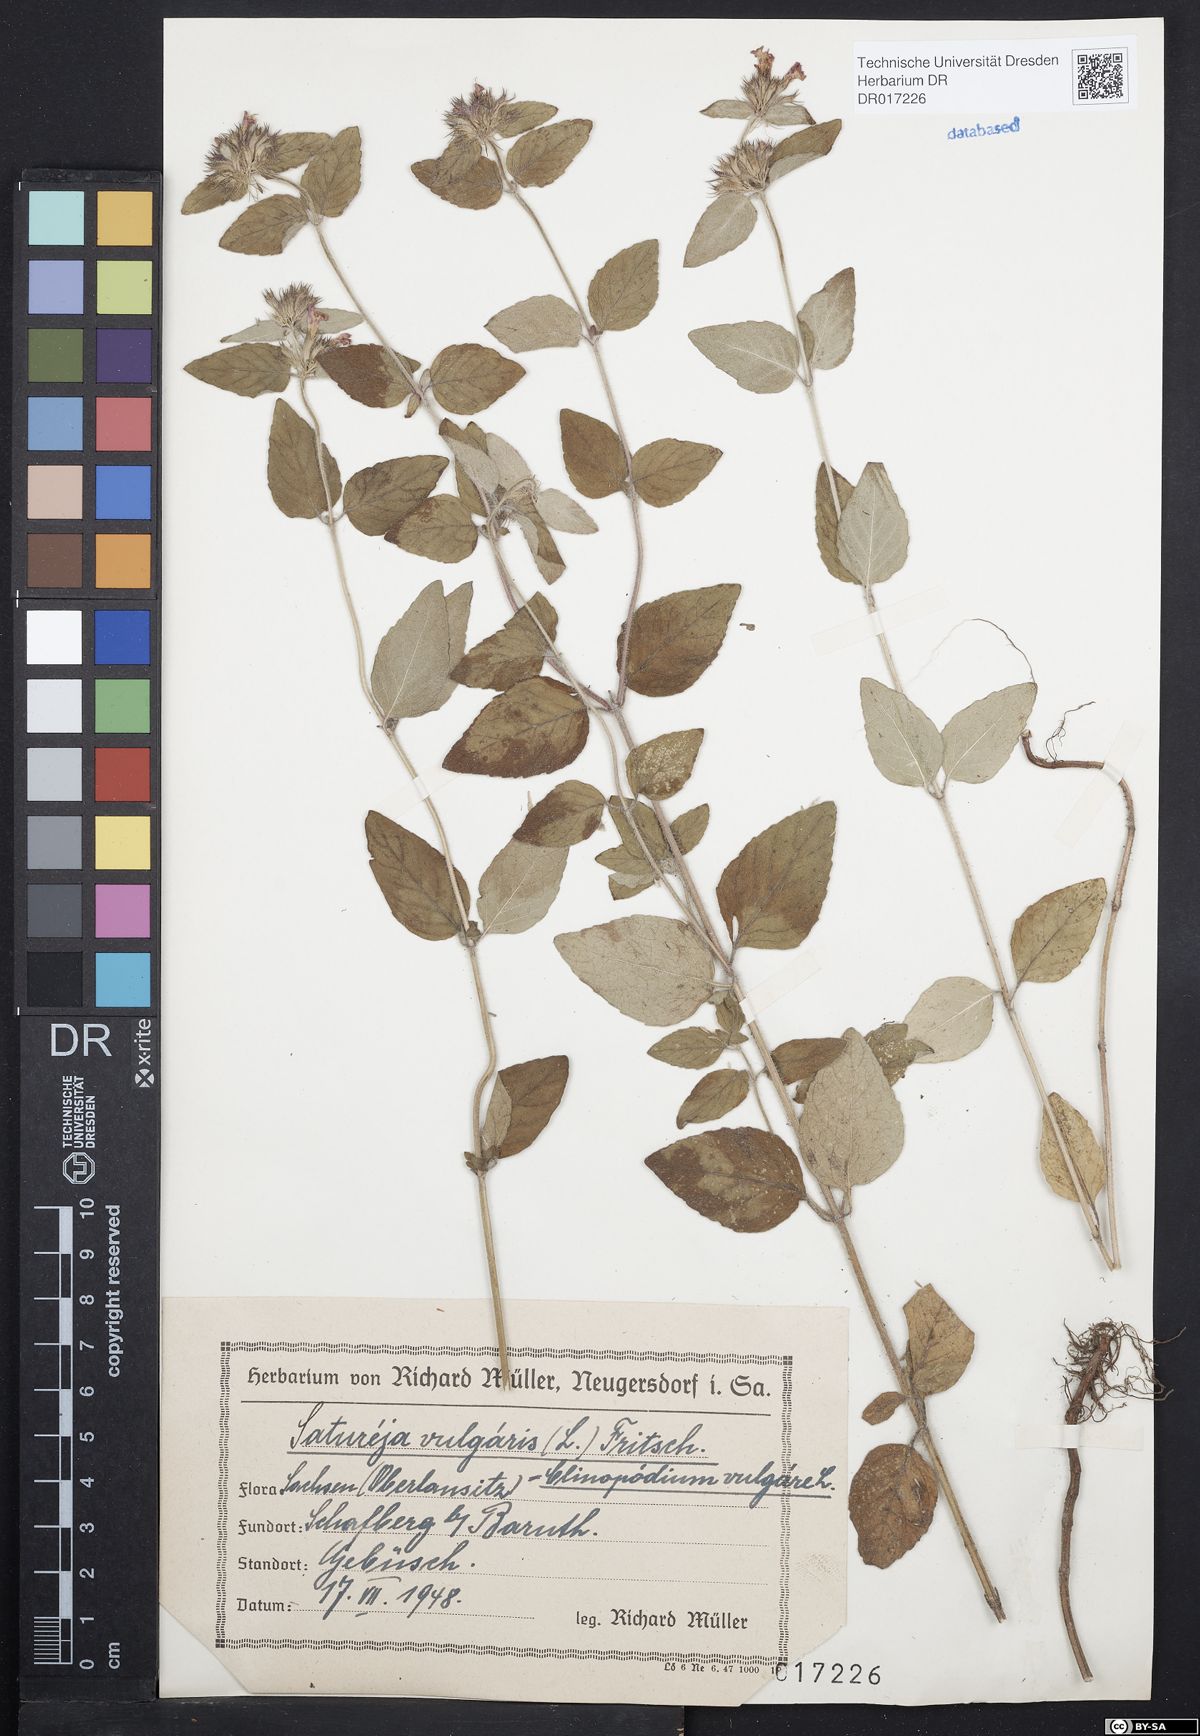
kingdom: Plantae
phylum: Tracheophyta
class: Magnoliopsida
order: Lamiales
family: Lamiaceae
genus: Clinopodium
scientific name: Clinopodium vulgare
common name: Wild basil
